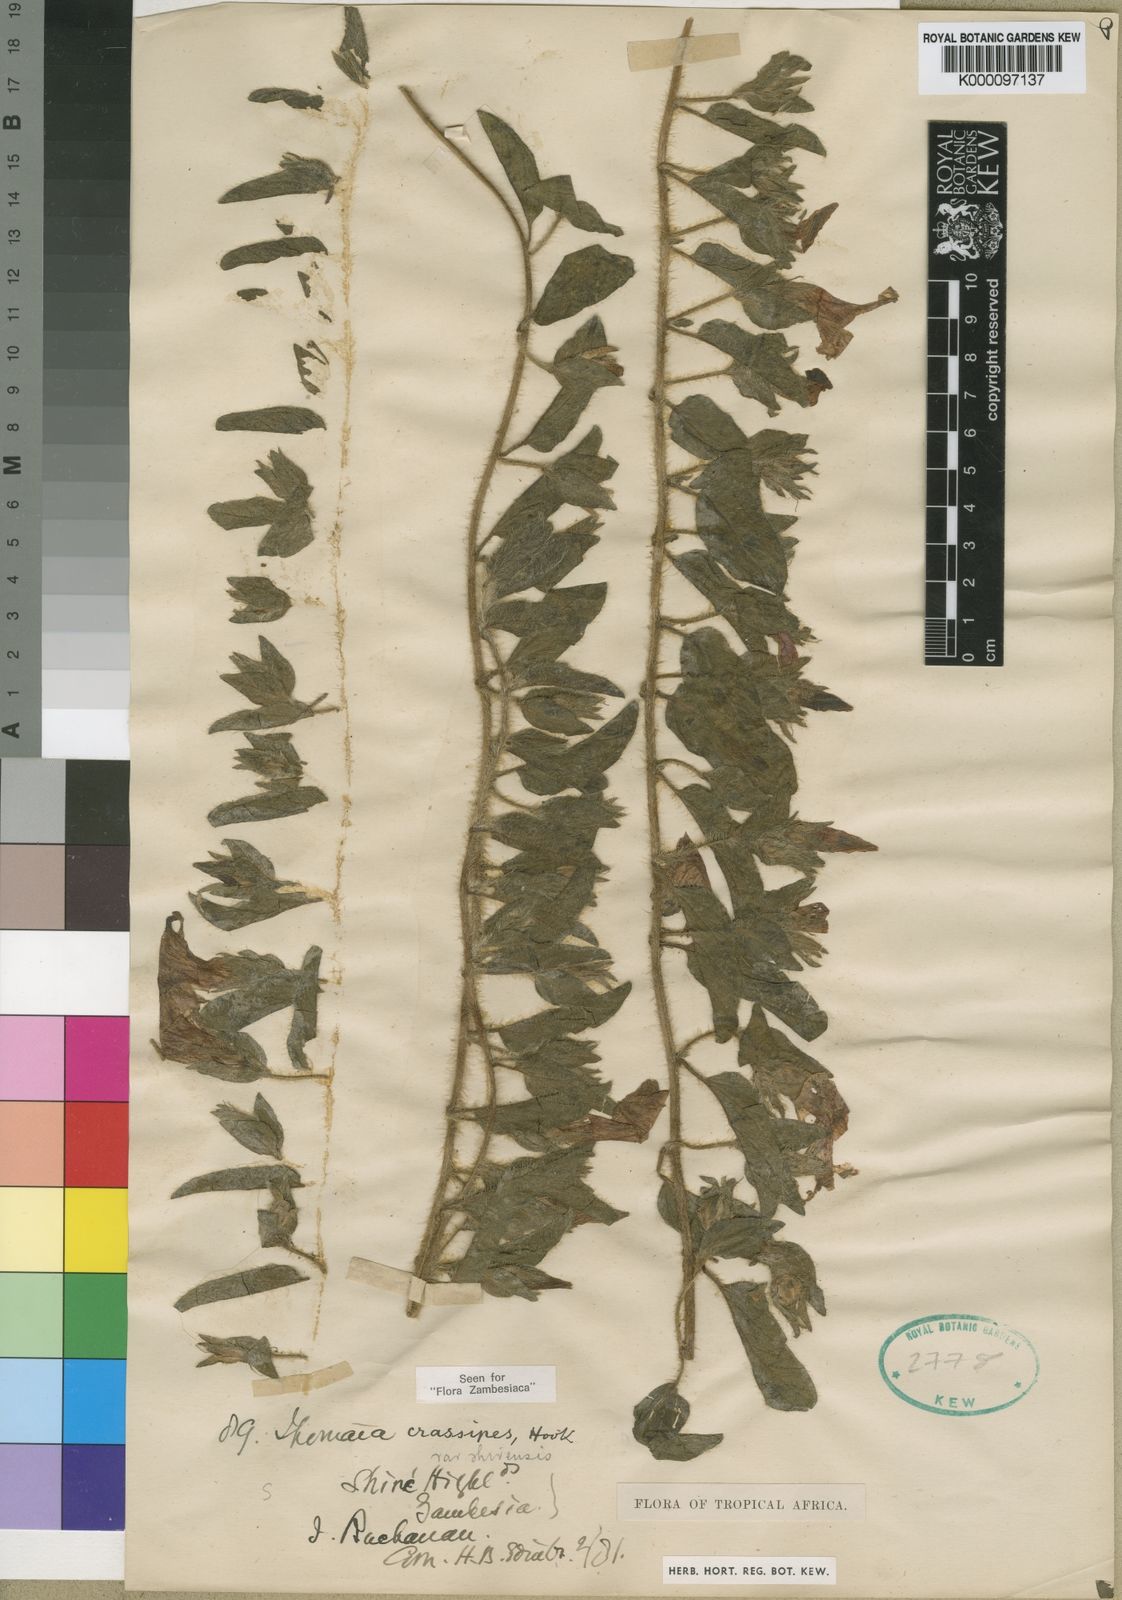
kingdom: Plantae
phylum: Tracheophyta
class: Magnoliopsida
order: Solanales
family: Convolvulaceae
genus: Ipomoea
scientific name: Ipomoea crassipes
